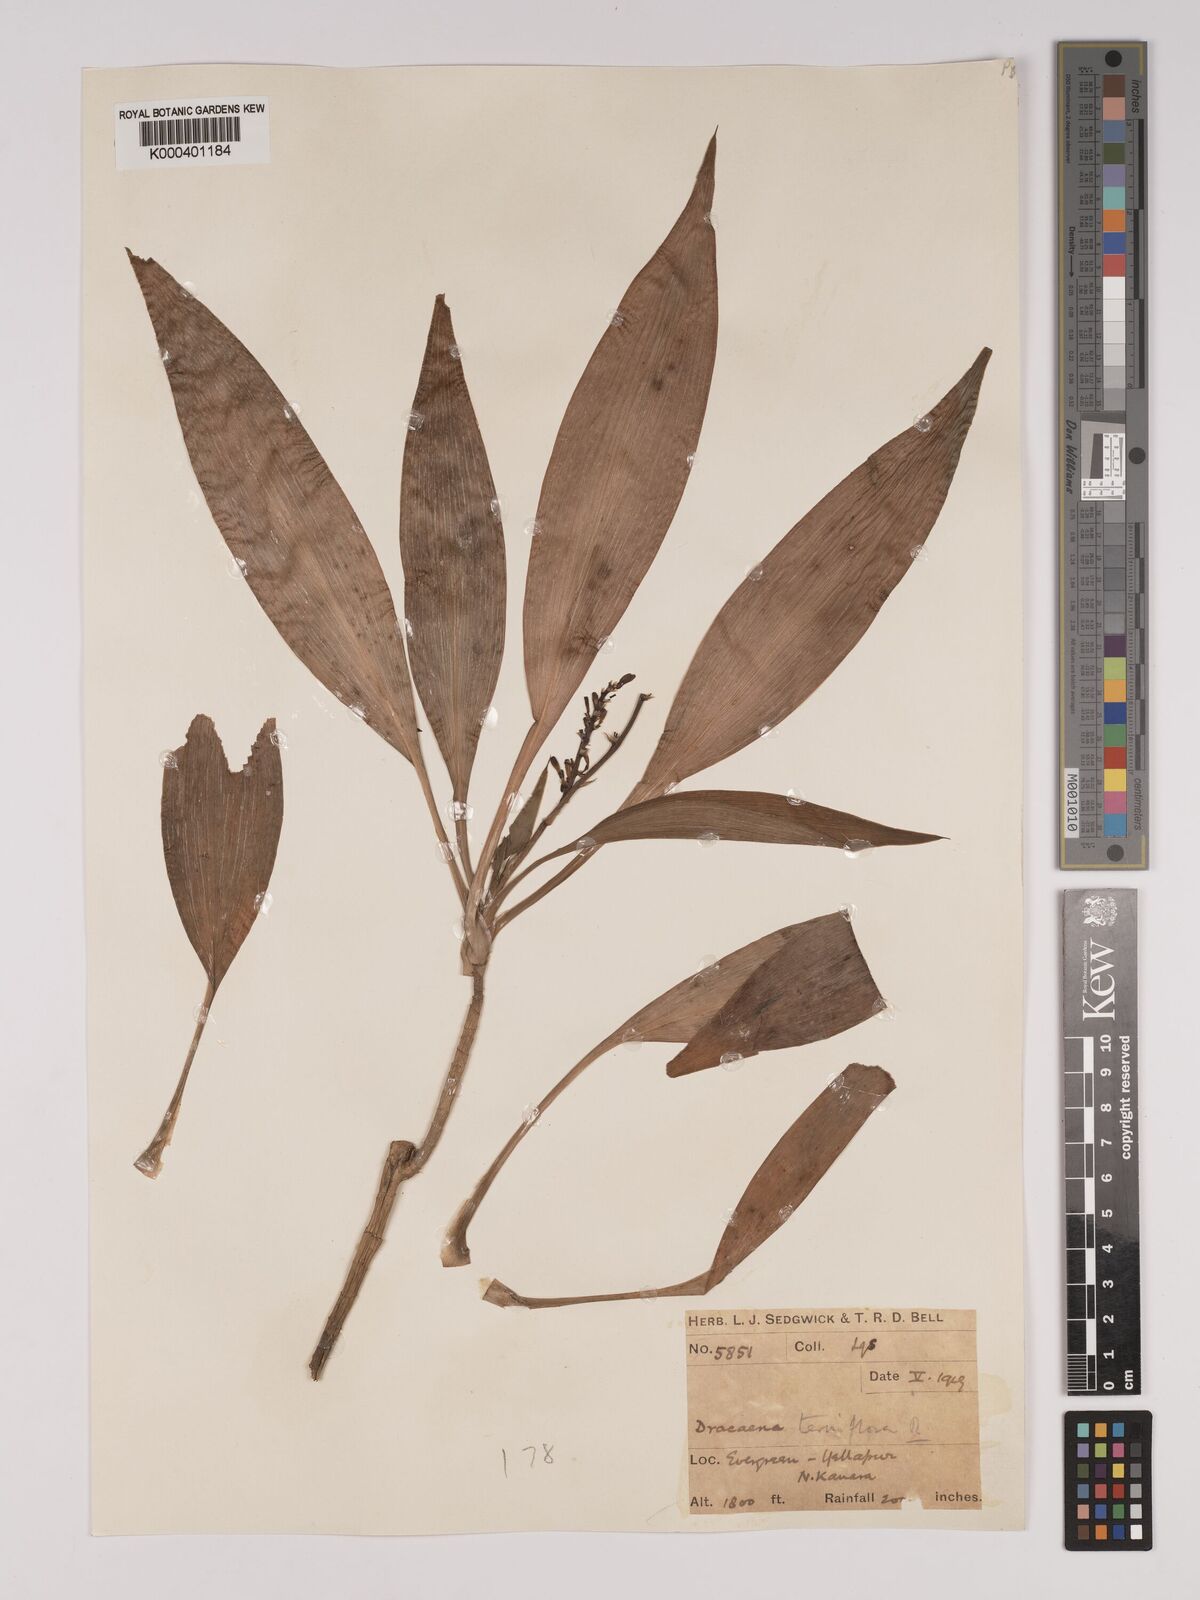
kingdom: Plantae
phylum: Tracheophyta
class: Liliopsida
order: Asparagales
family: Asparagaceae
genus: Dracaena
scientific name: Dracaena terniflora
